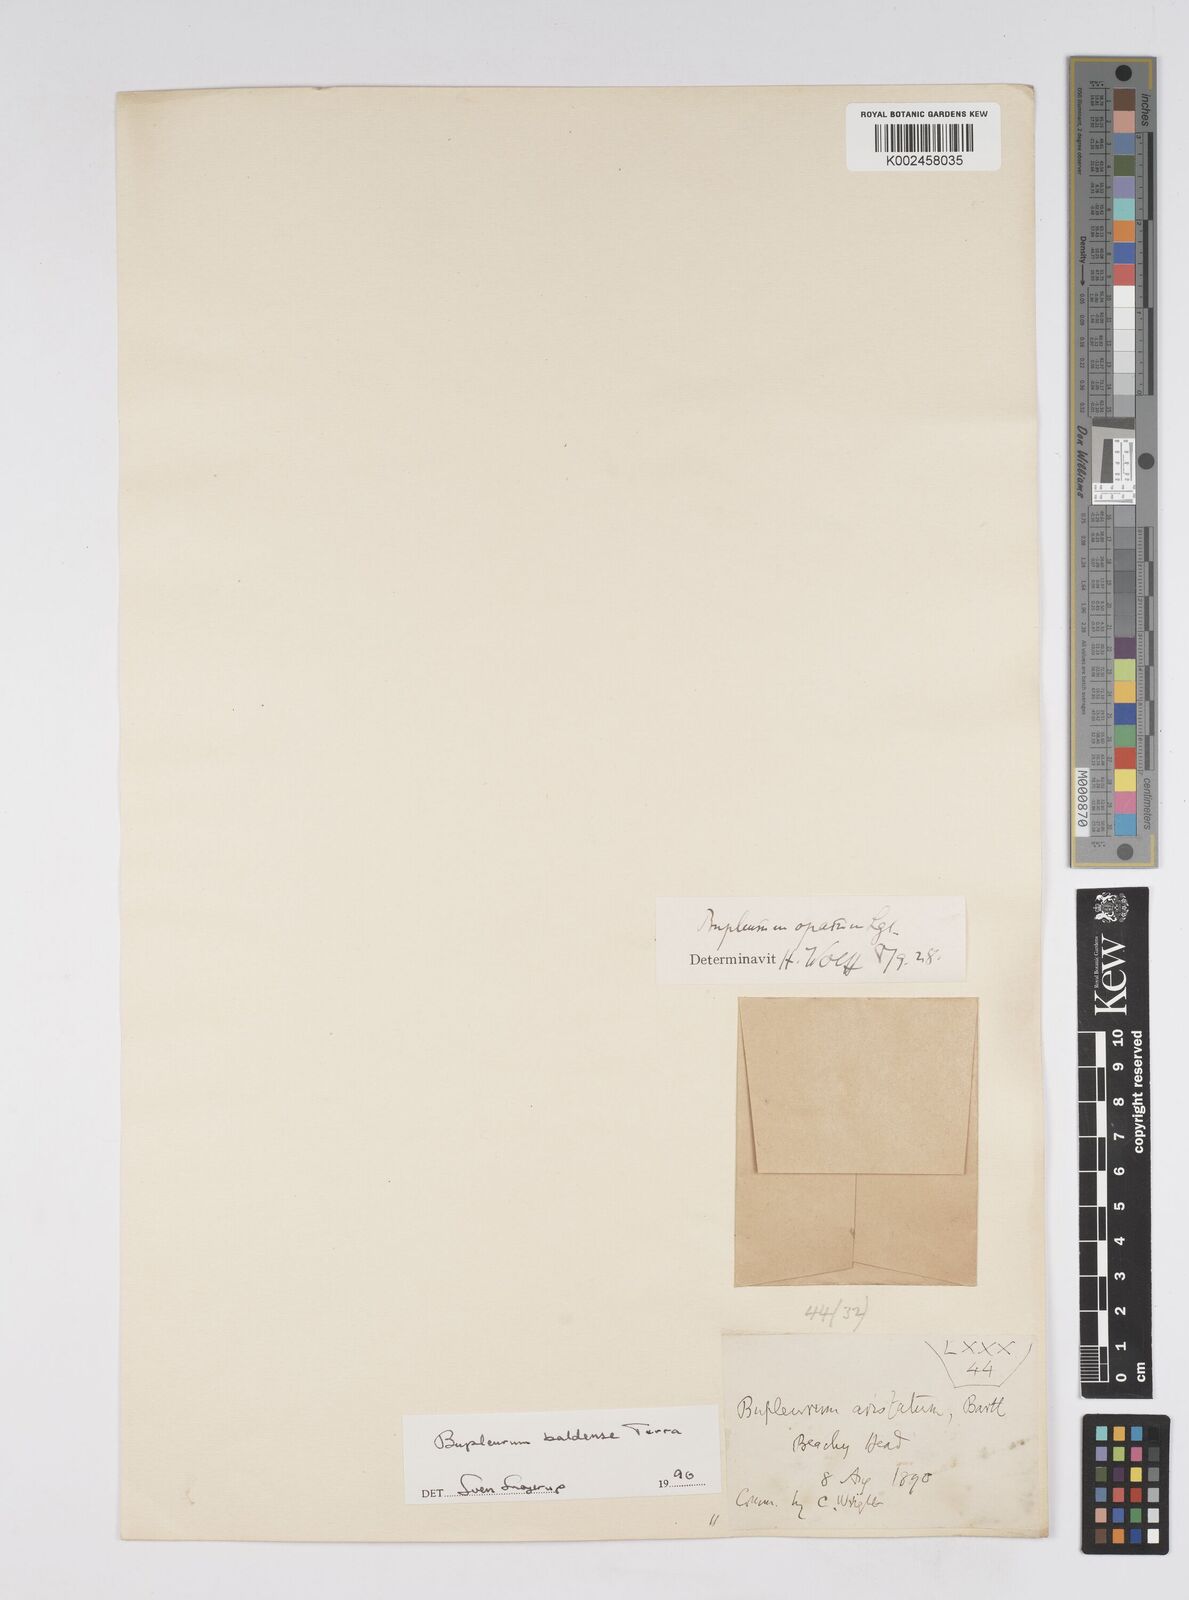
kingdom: Plantae
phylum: Tracheophyta
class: Magnoliopsida
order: Apiales
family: Apiaceae
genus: Bupleurum
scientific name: Bupleurum baldense
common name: Small hare's-ear
